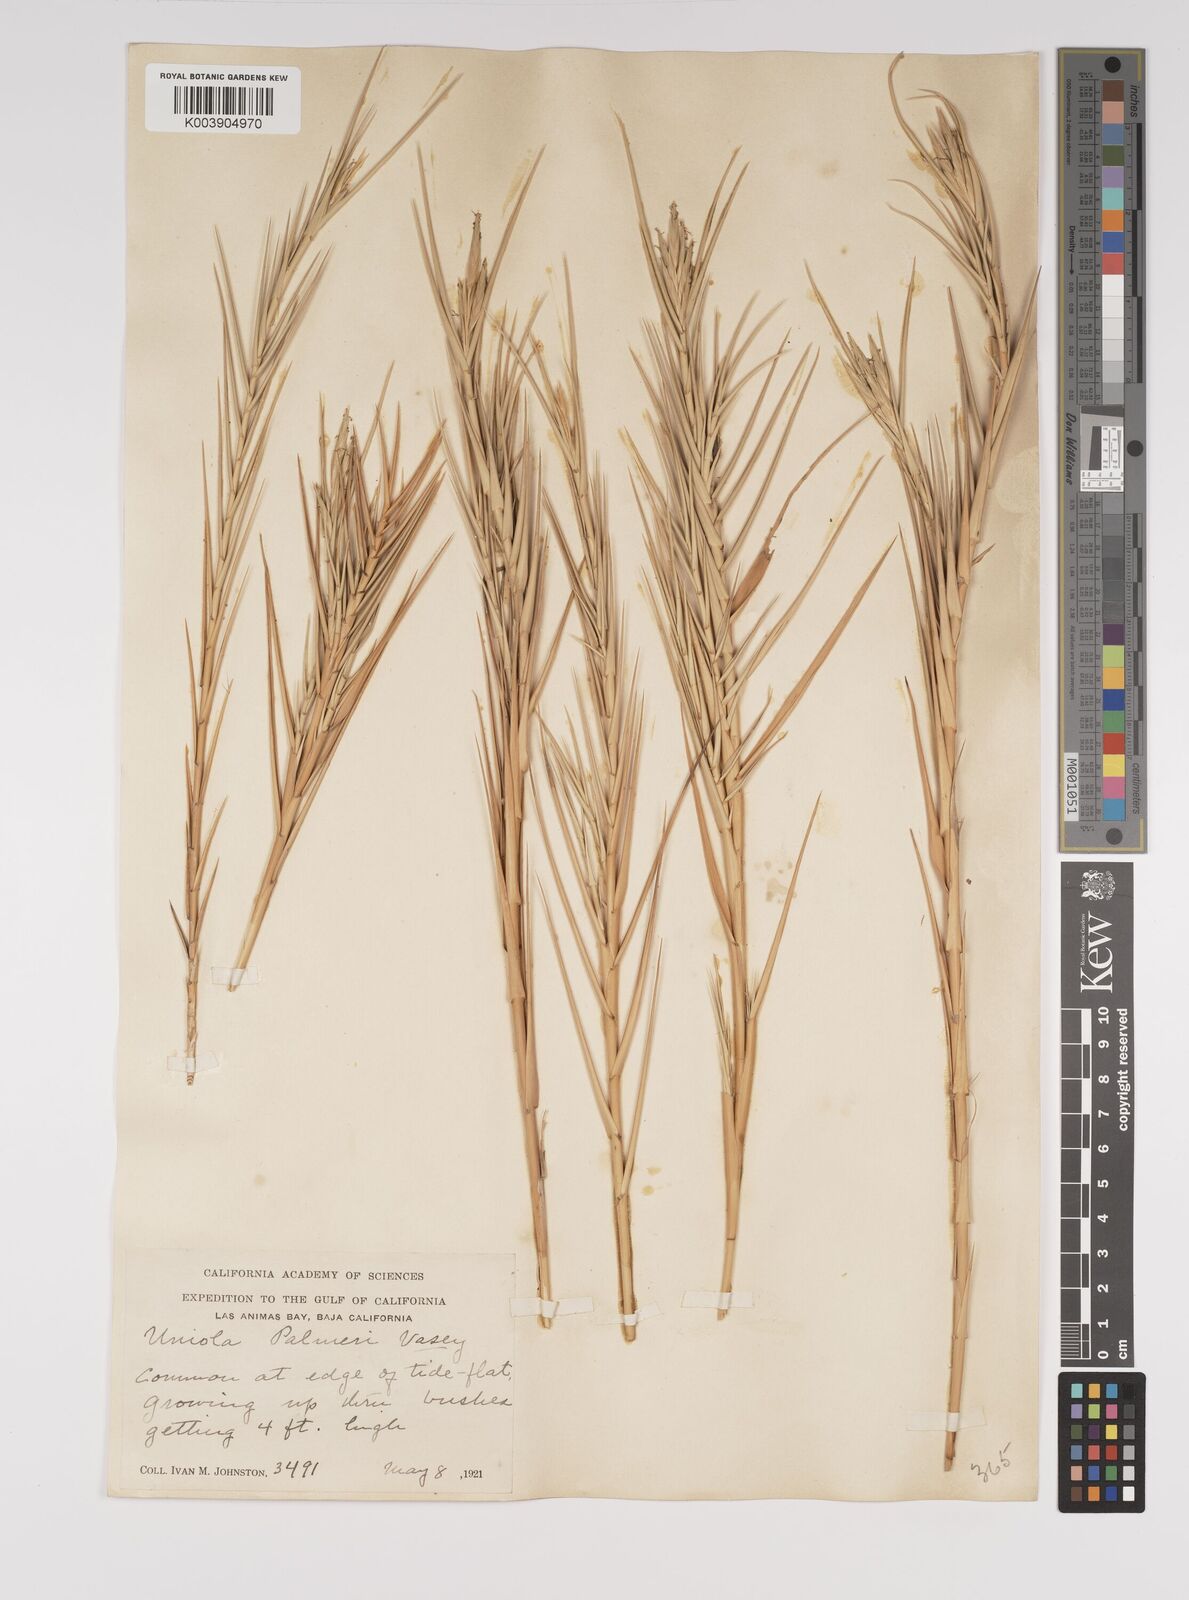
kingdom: Plantae
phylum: Tracheophyta
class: Liliopsida
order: Poales
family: Poaceae
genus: Distichlis
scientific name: Distichlis palmeri
